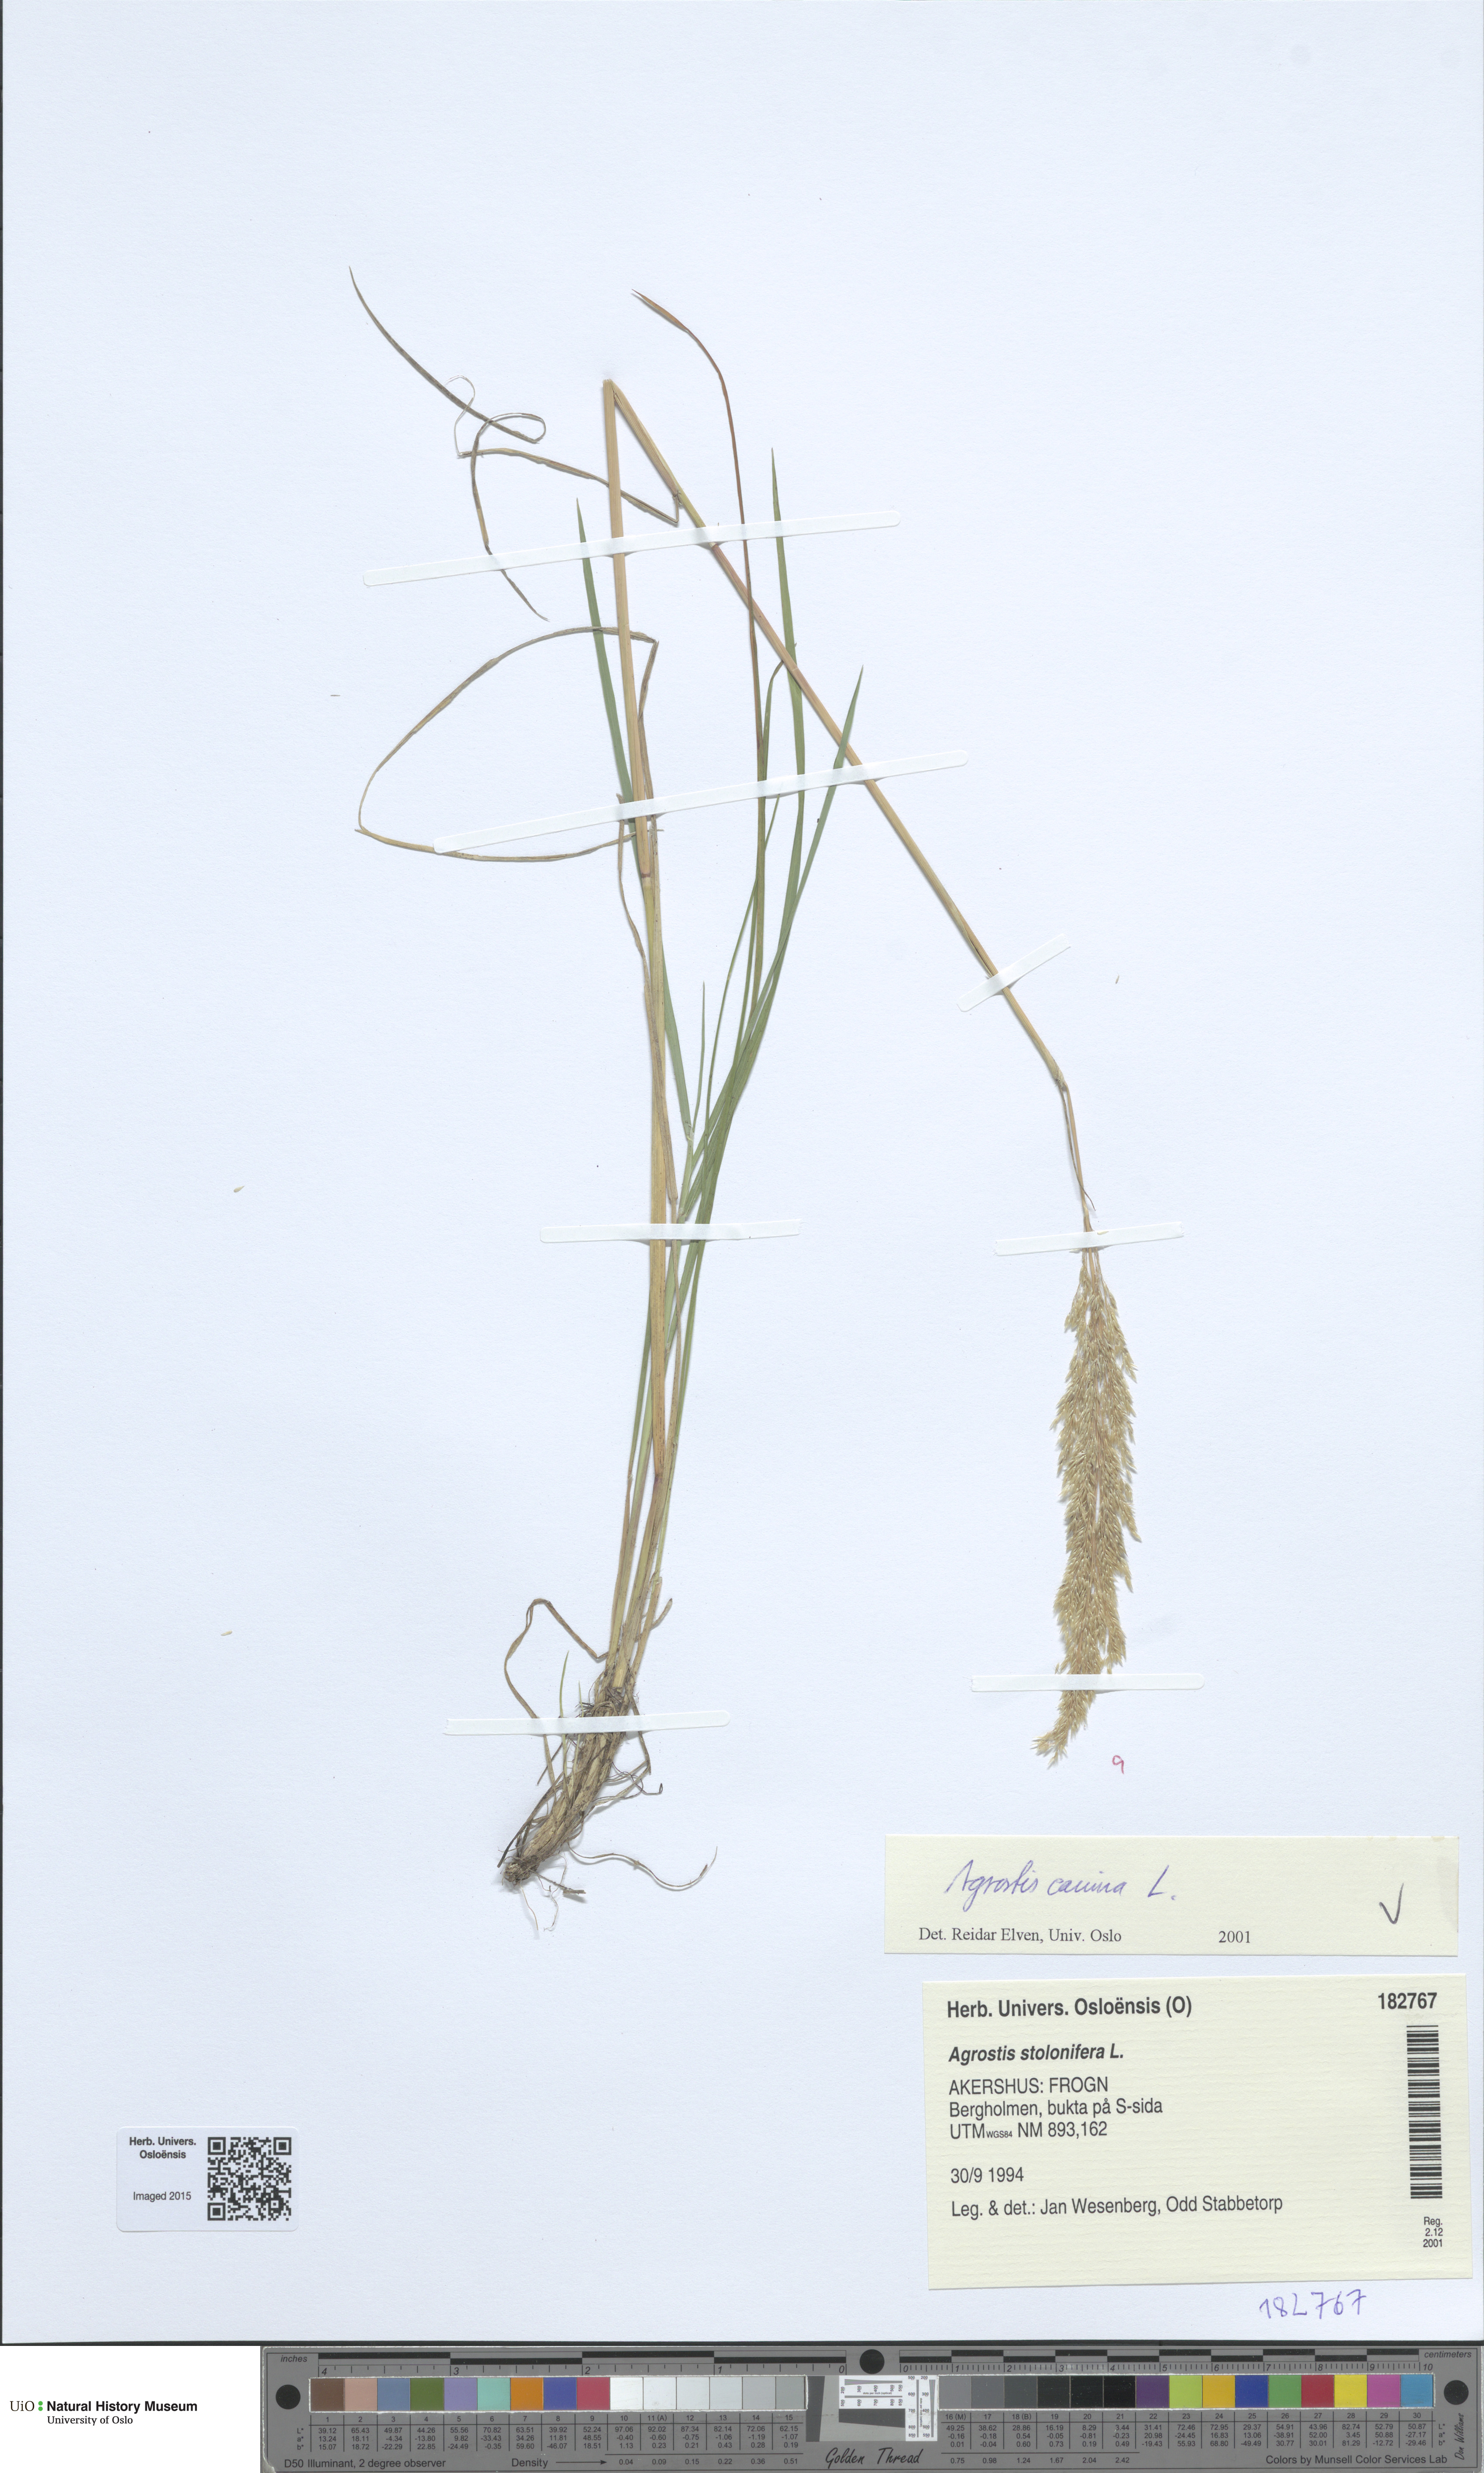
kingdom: Plantae
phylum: Tracheophyta
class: Liliopsida
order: Poales
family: Poaceae
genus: Agrostis
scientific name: Agrostis canina
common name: Velvet bent
